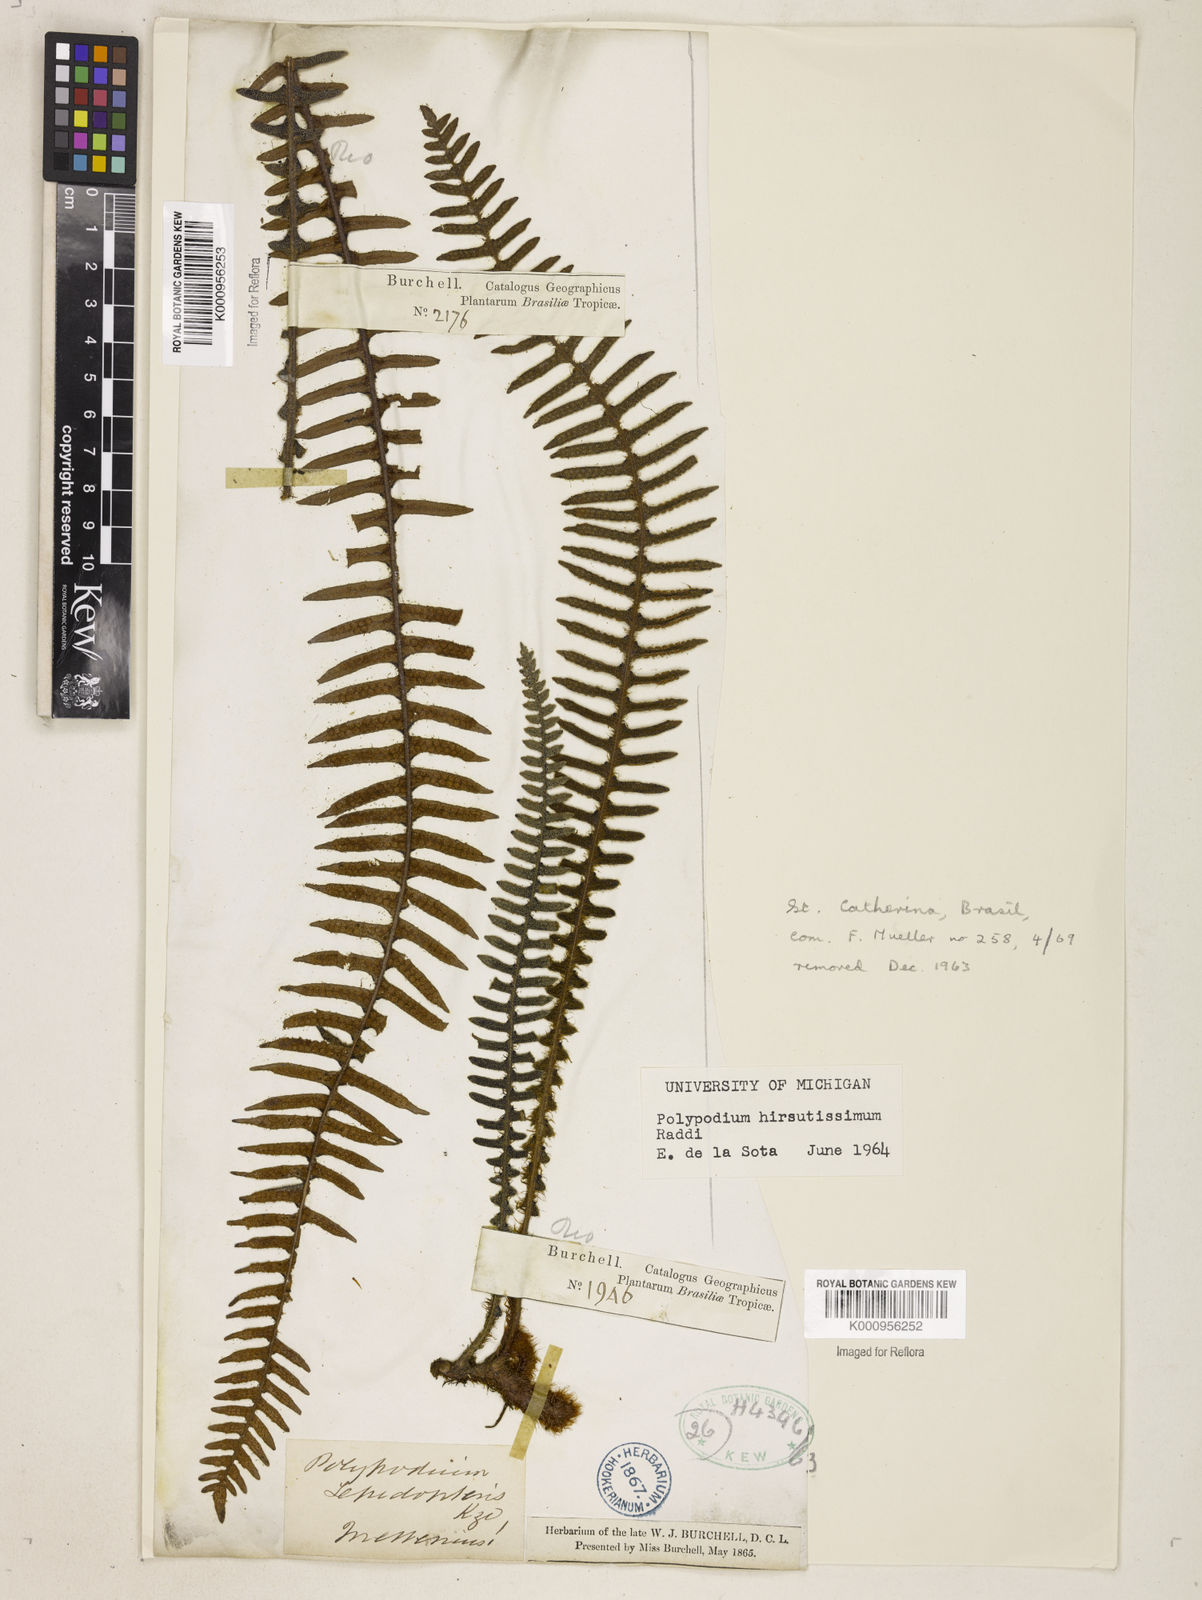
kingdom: Plantae
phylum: Tracheophyta
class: Polypodiopsida
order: Polypodiales
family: Polypodiaceae
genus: Pleopeltis
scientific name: Pleopeltis hirsutissima
